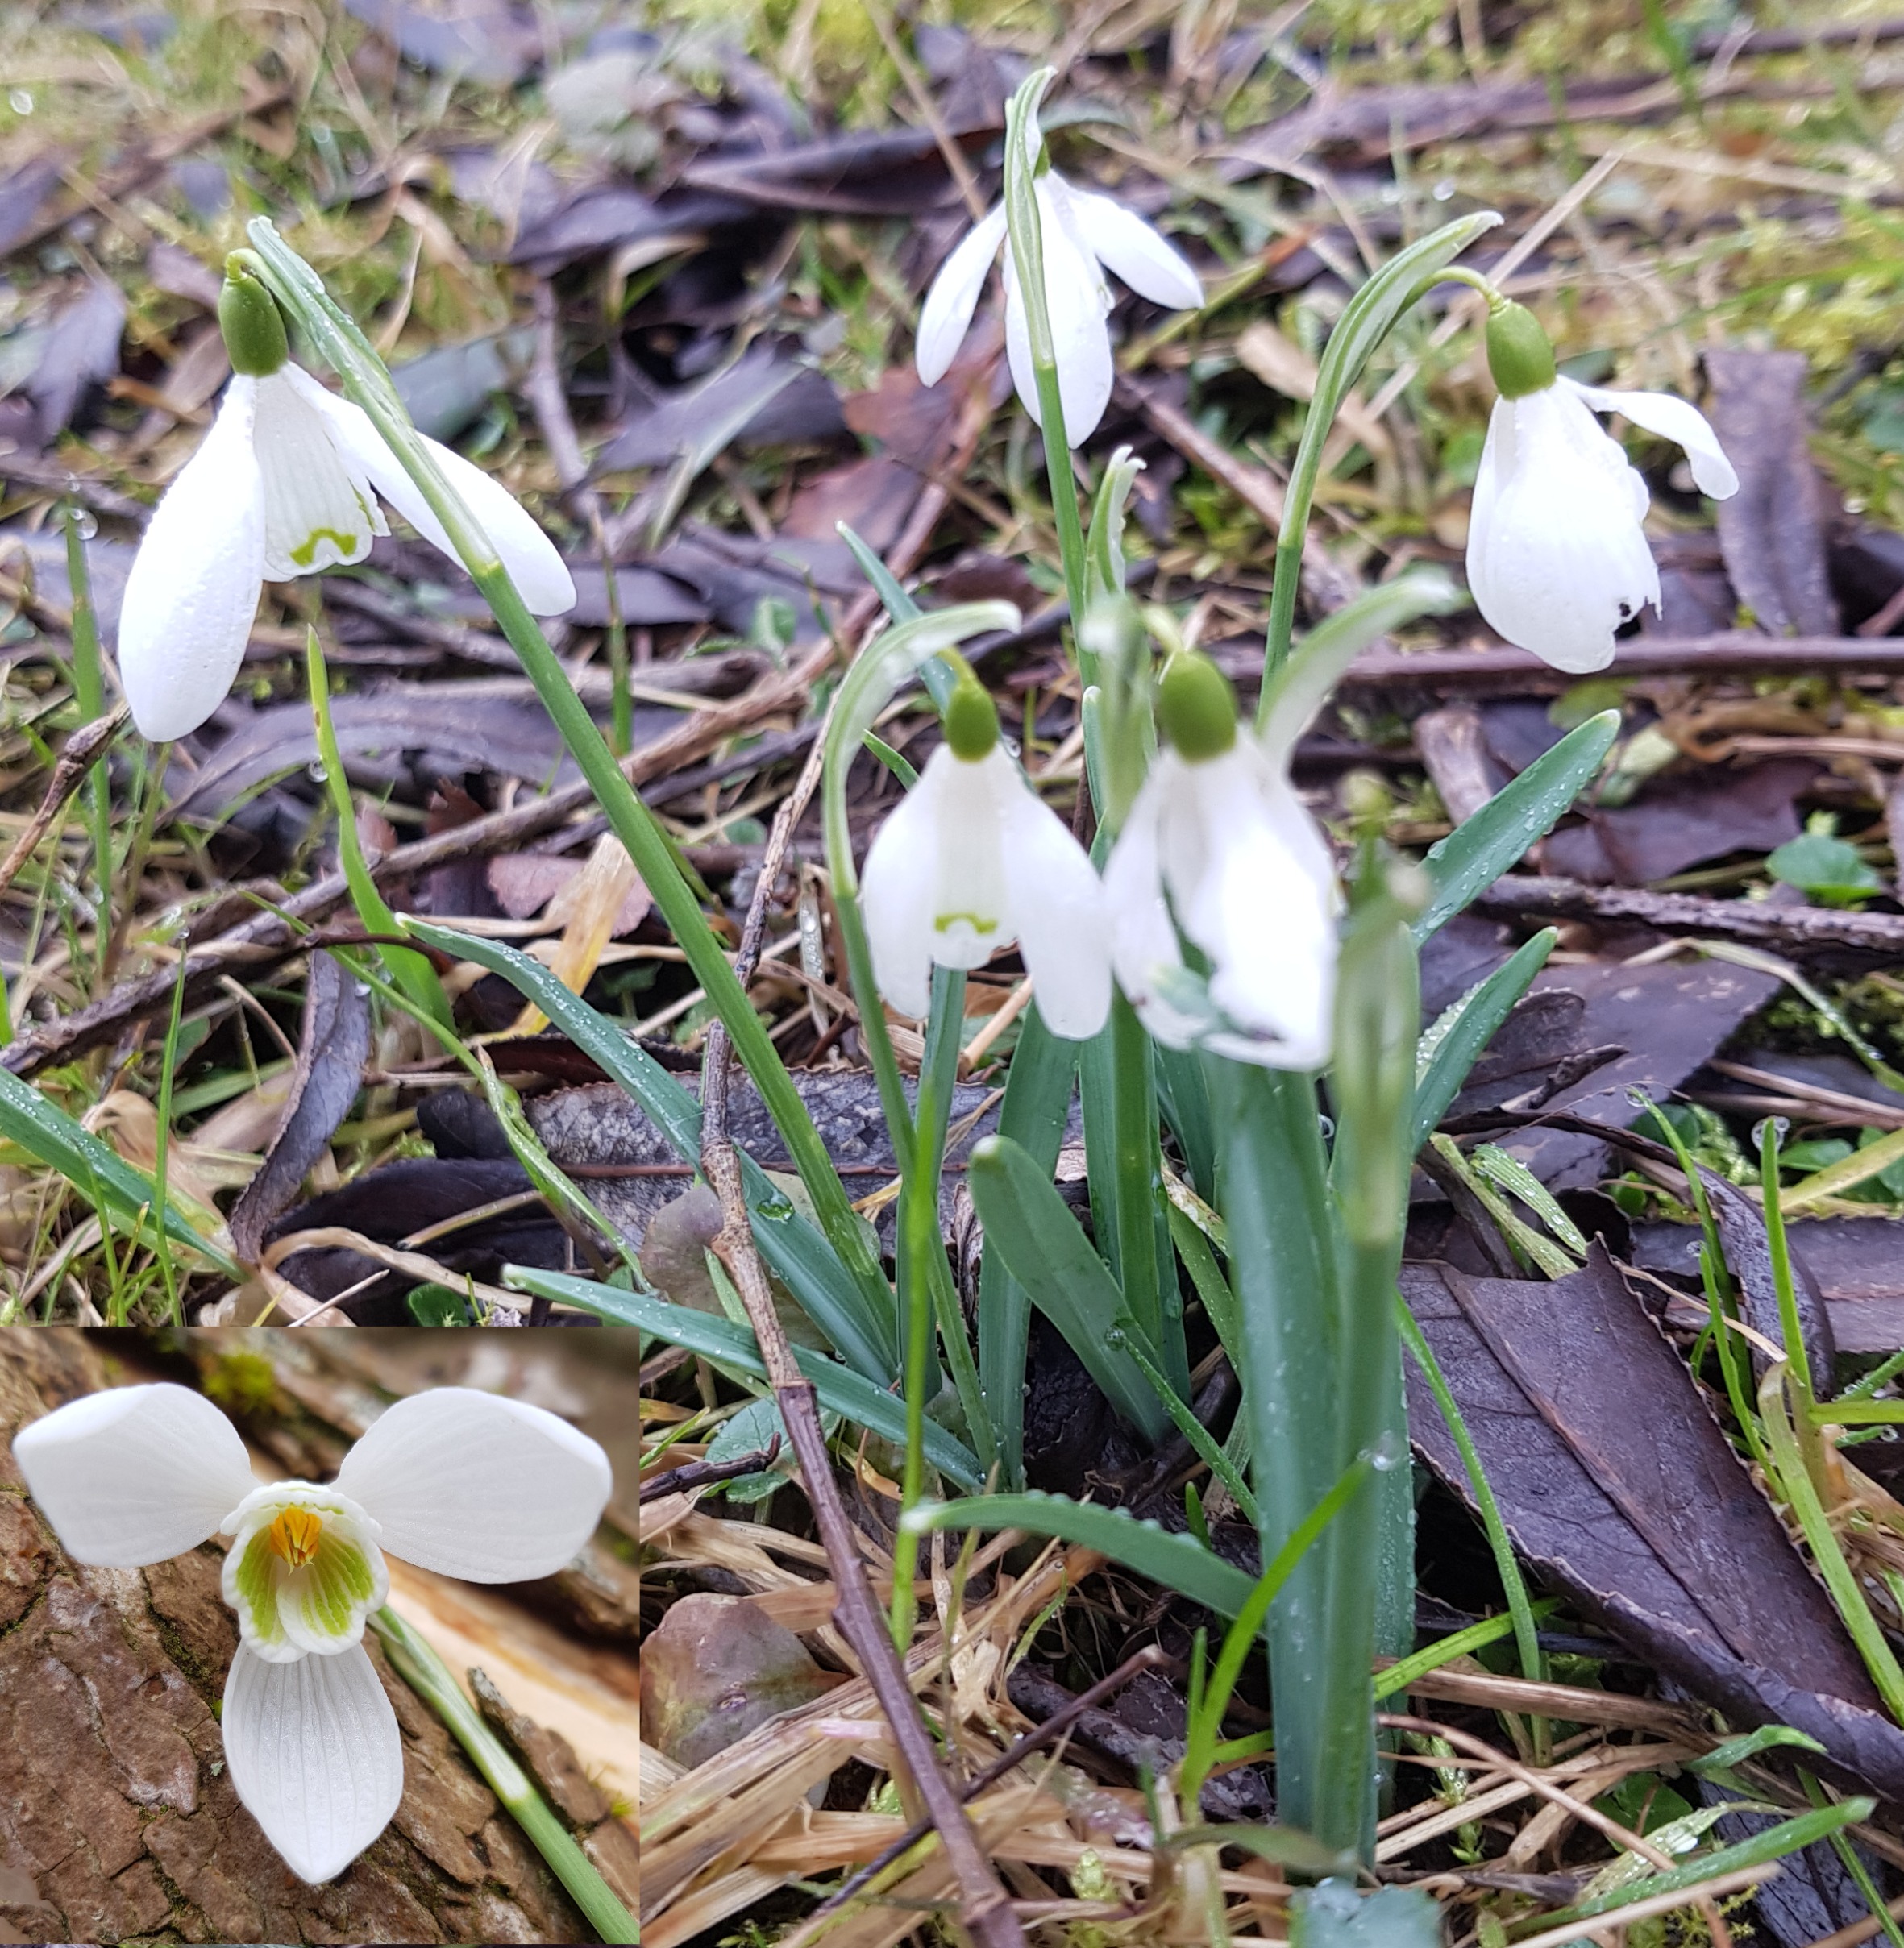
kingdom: Plantae
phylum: Tracheophyta
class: Liliopsida
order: Asparagales
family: Amaryllidaceae
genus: Galanthus
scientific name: Galanthus nivalis
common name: Vintergæk
